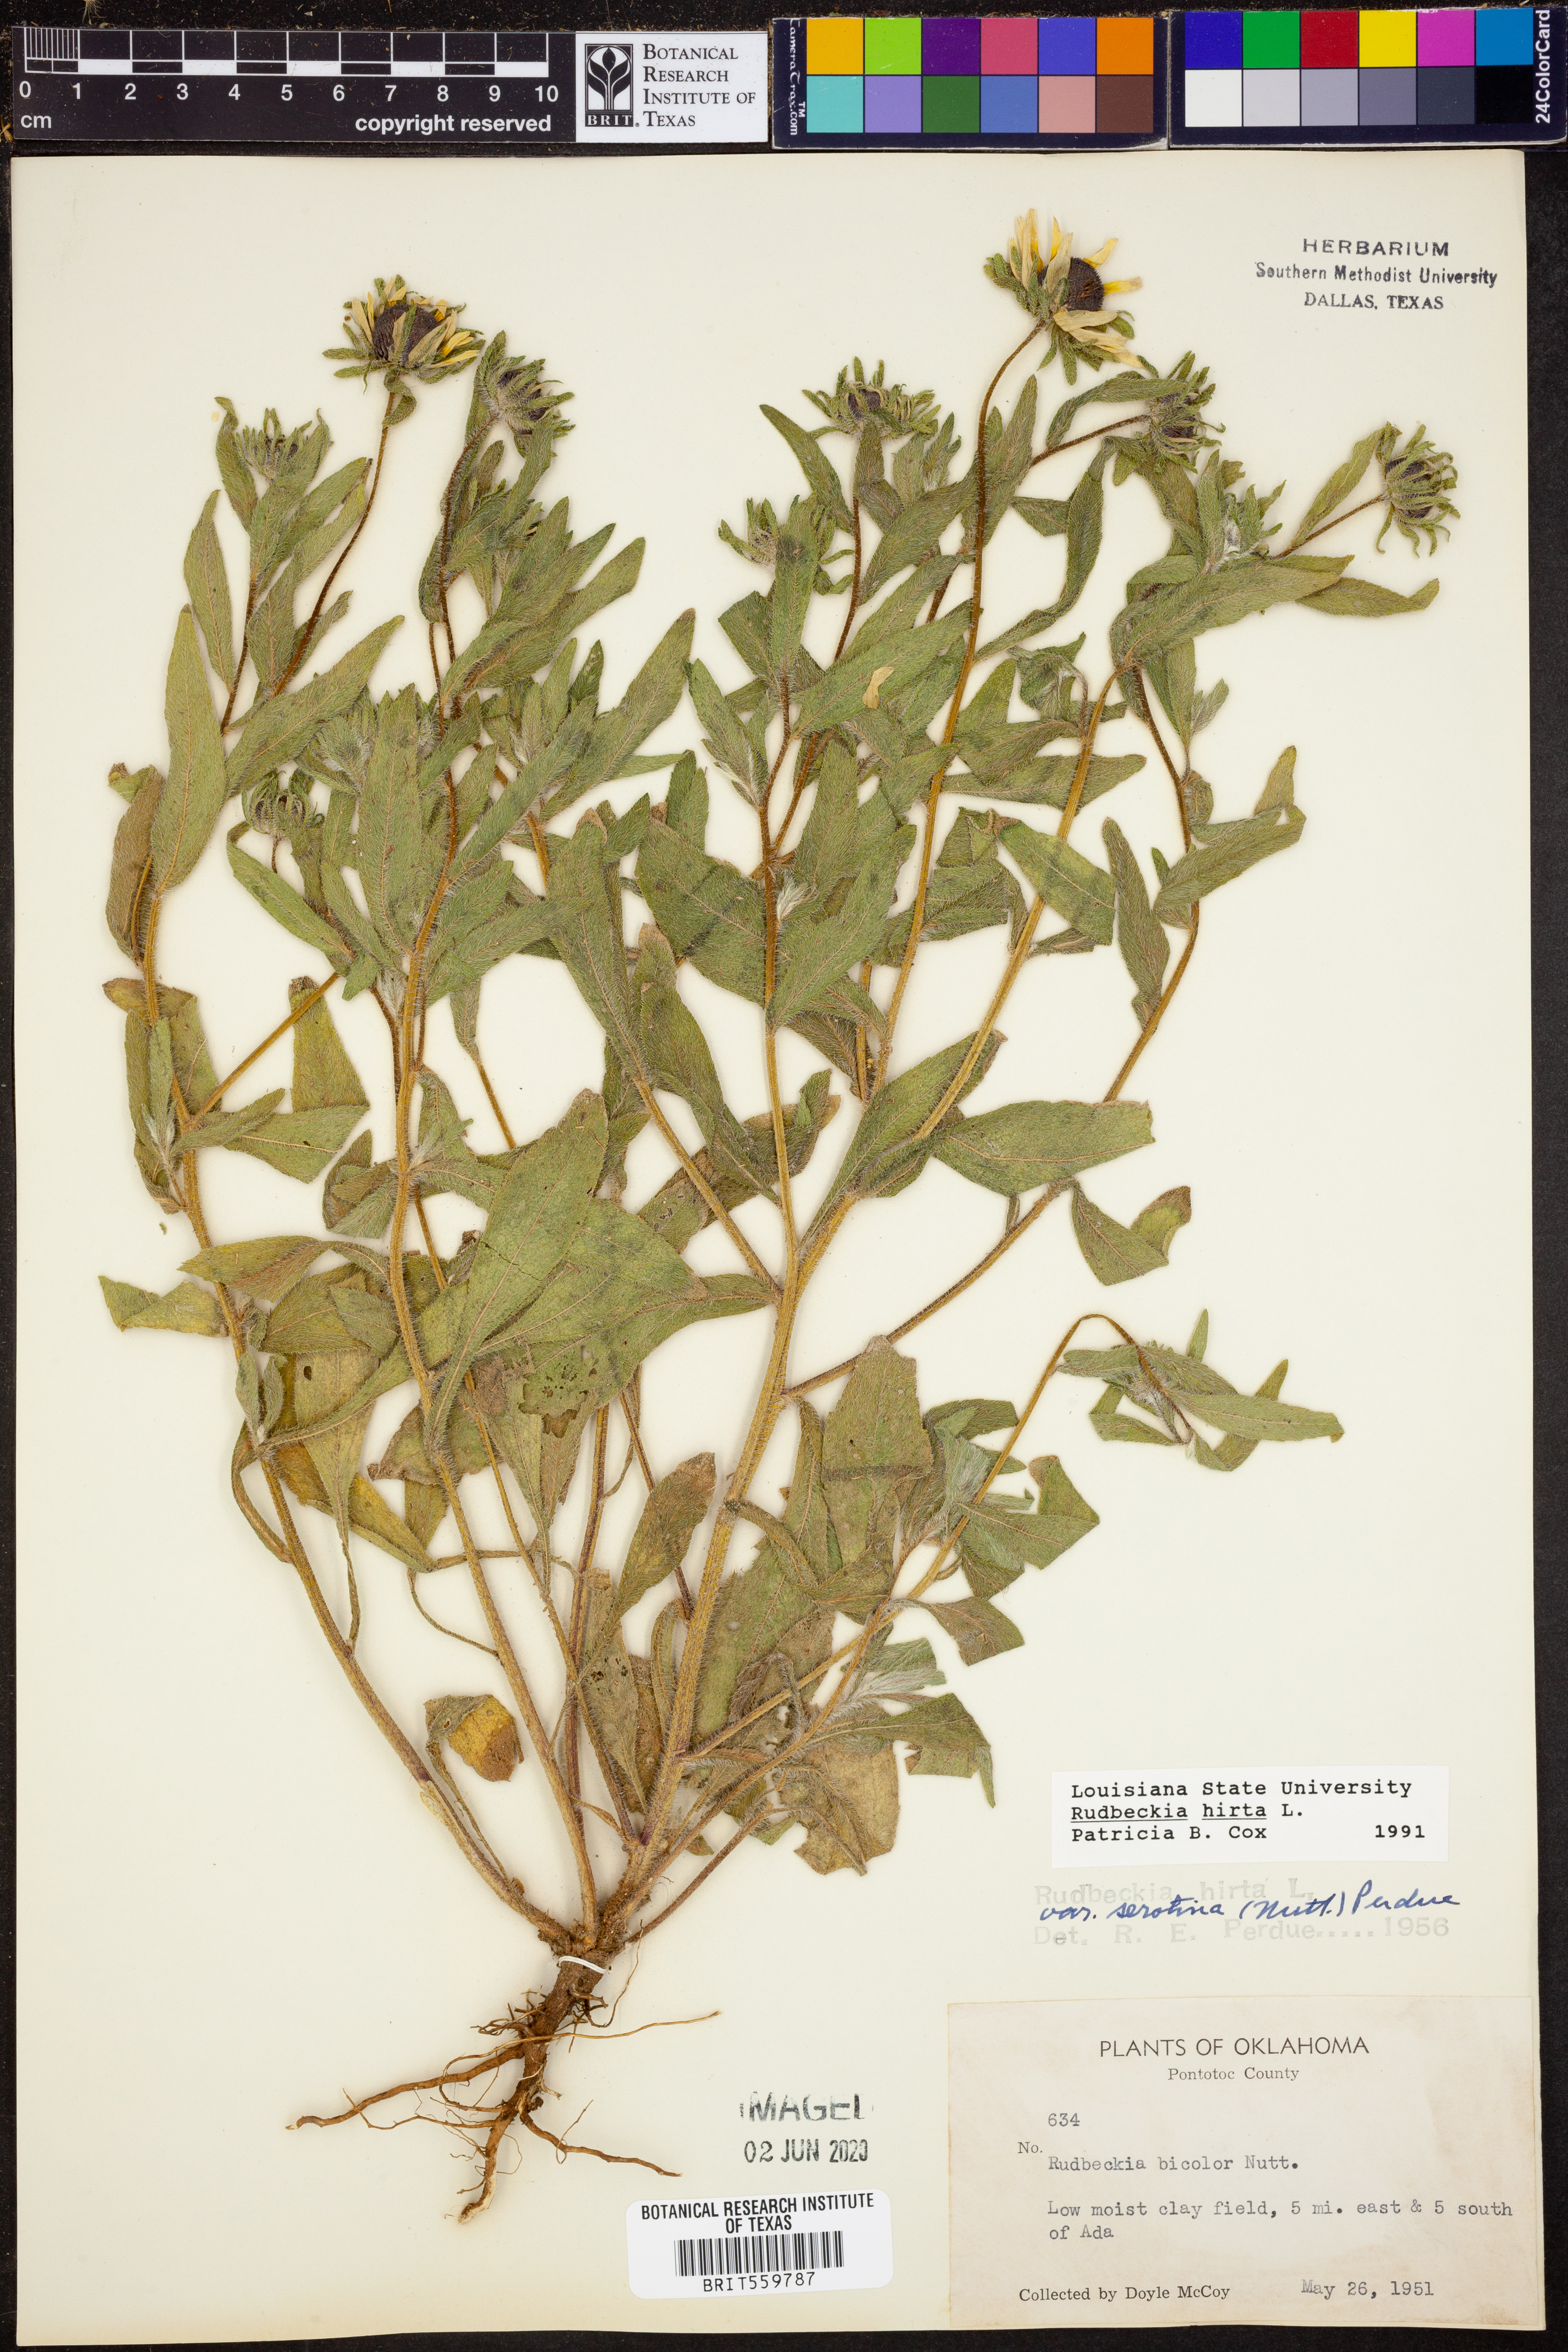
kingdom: Plantae
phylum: Tracheophyta
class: Magnoliopsida
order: Asterales
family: Asteraceae
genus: Rudbeckia
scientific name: Rudbeckia hirta
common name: Black-eyed-susan
